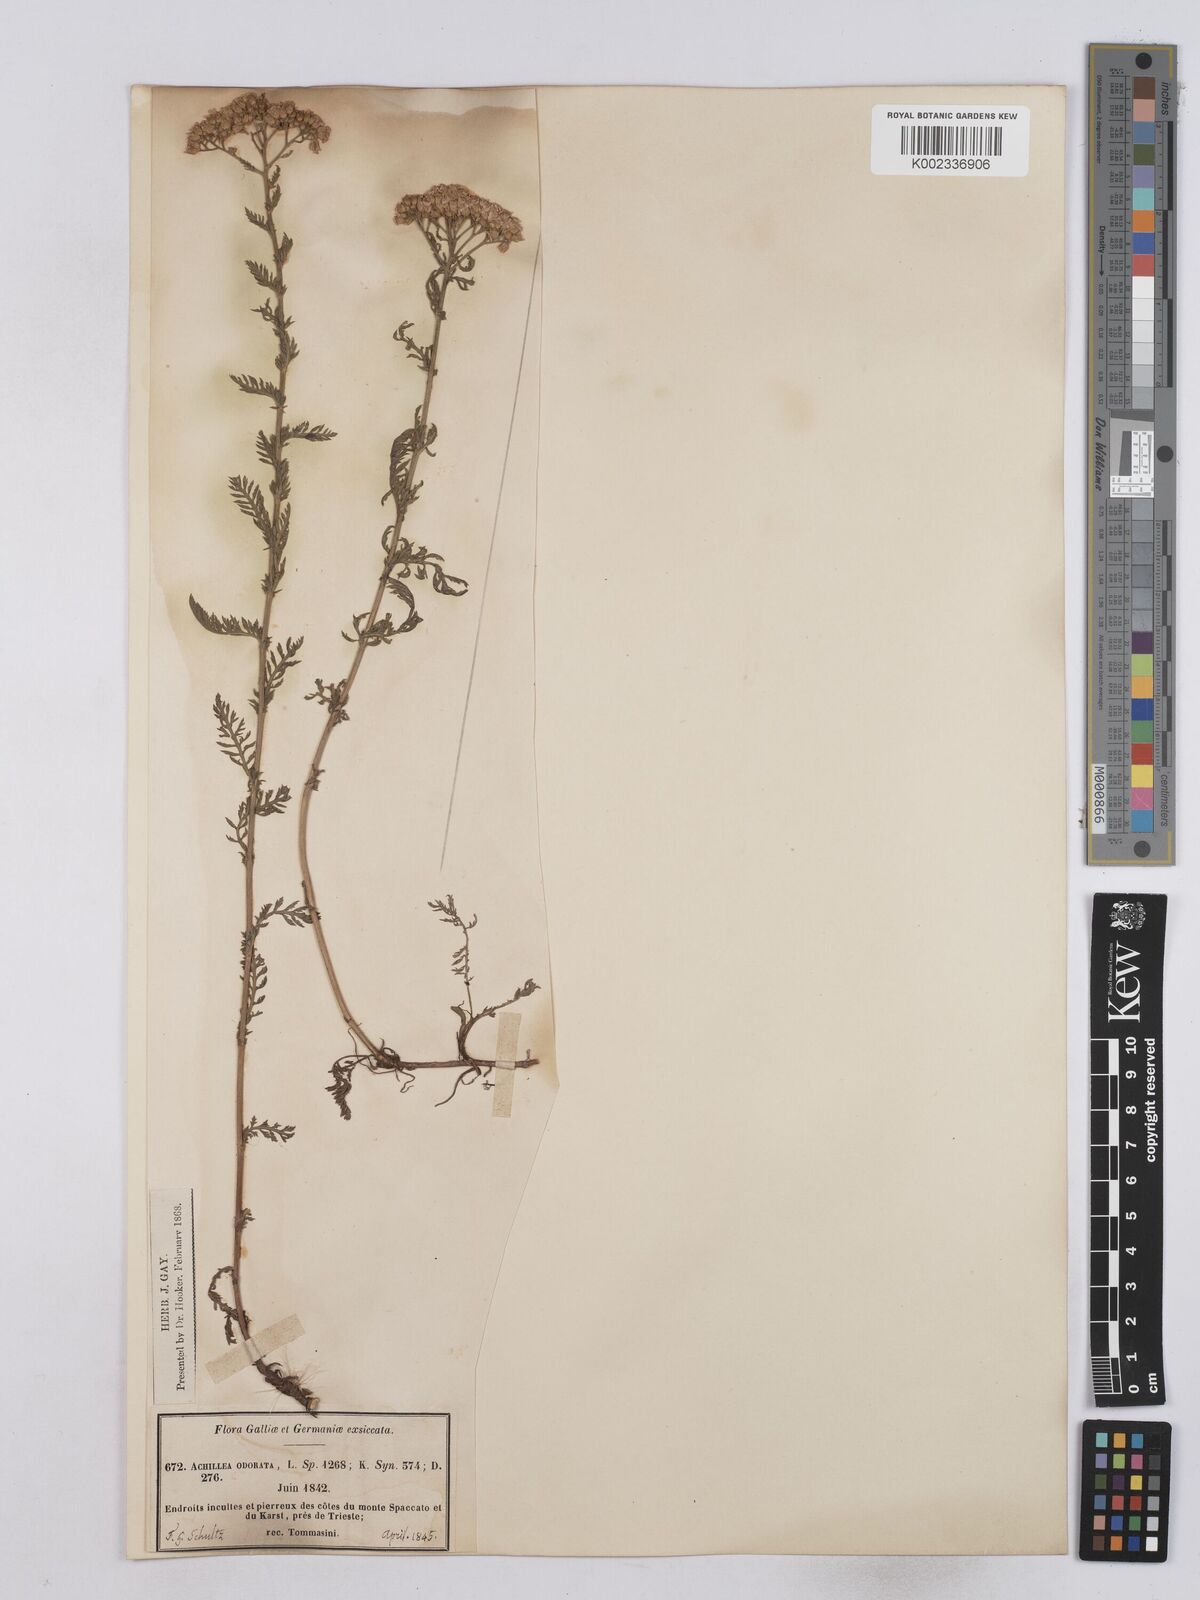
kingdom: Plantae
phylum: Tracheophyta
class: Magnoliopsida
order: Asterales
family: Asteraceae
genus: Achillea
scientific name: Achillea odorata
